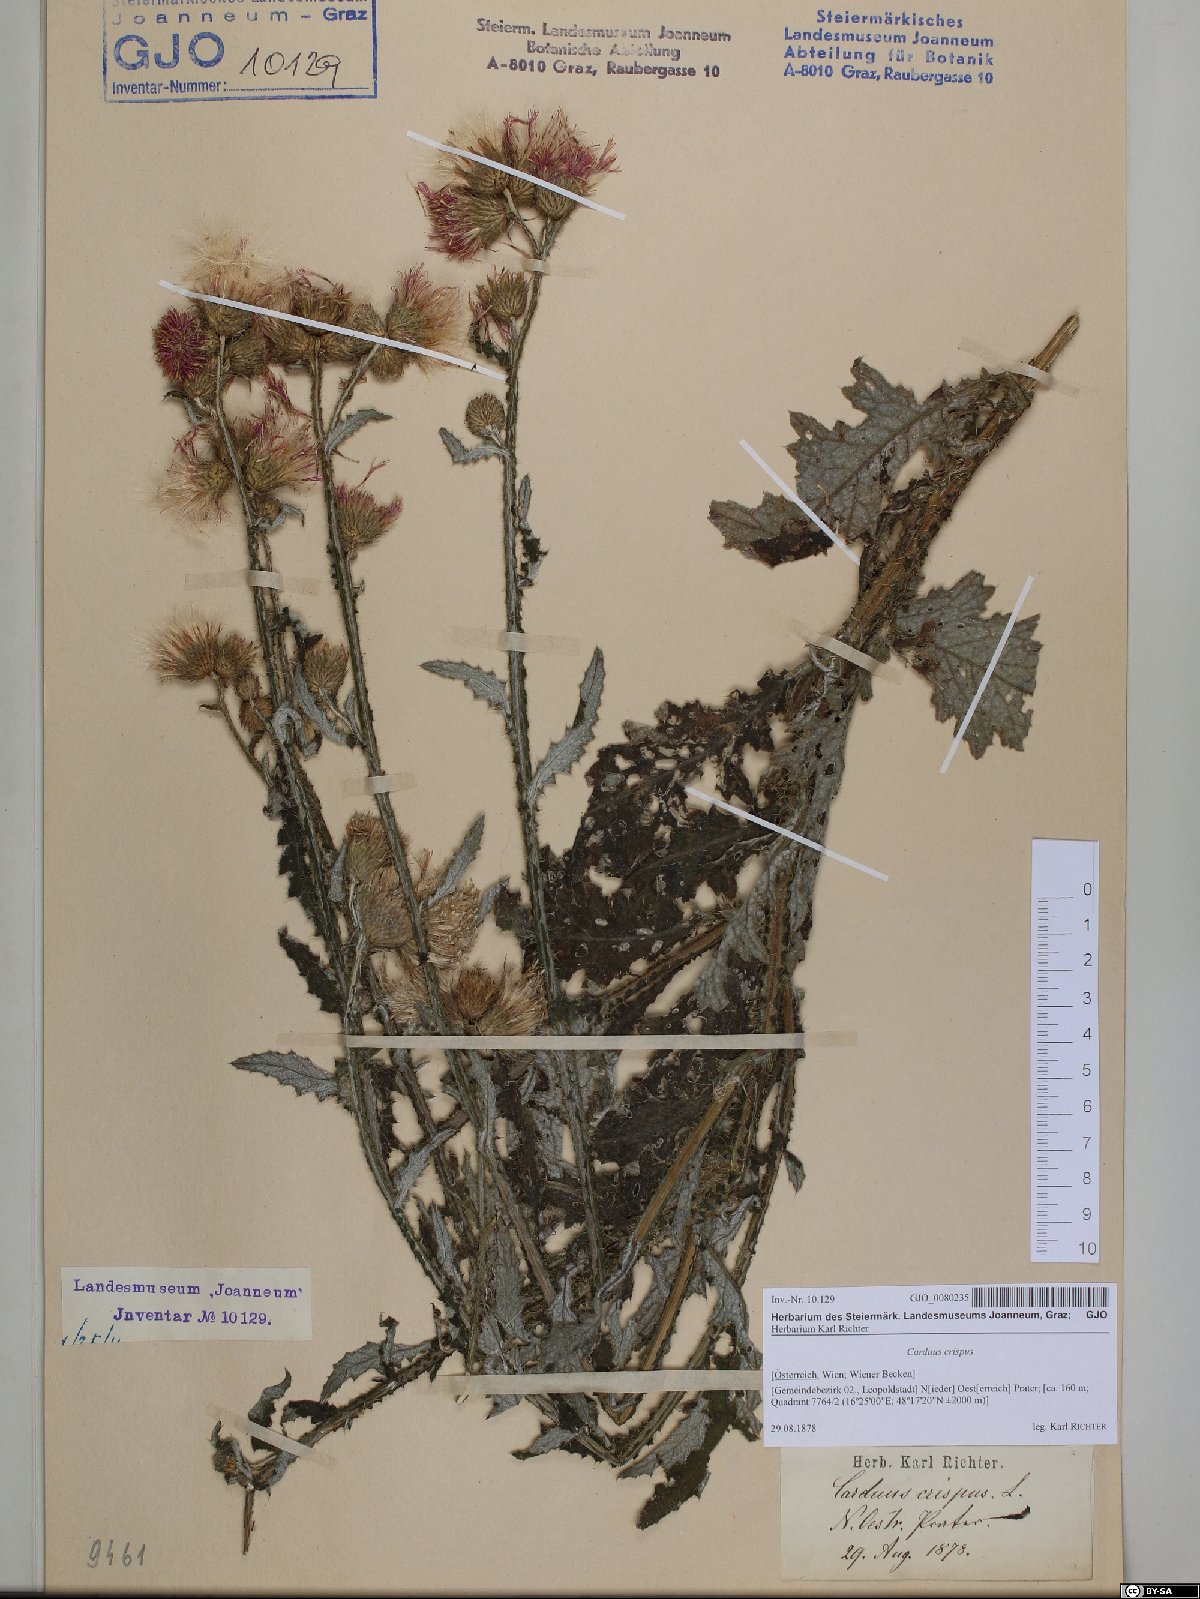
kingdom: Plantae
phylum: Tracheophyta
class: Magnoliopsida
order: Asterales
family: Asteraceae
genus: Carduus
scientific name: Carduus crispus
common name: Welted thistle
